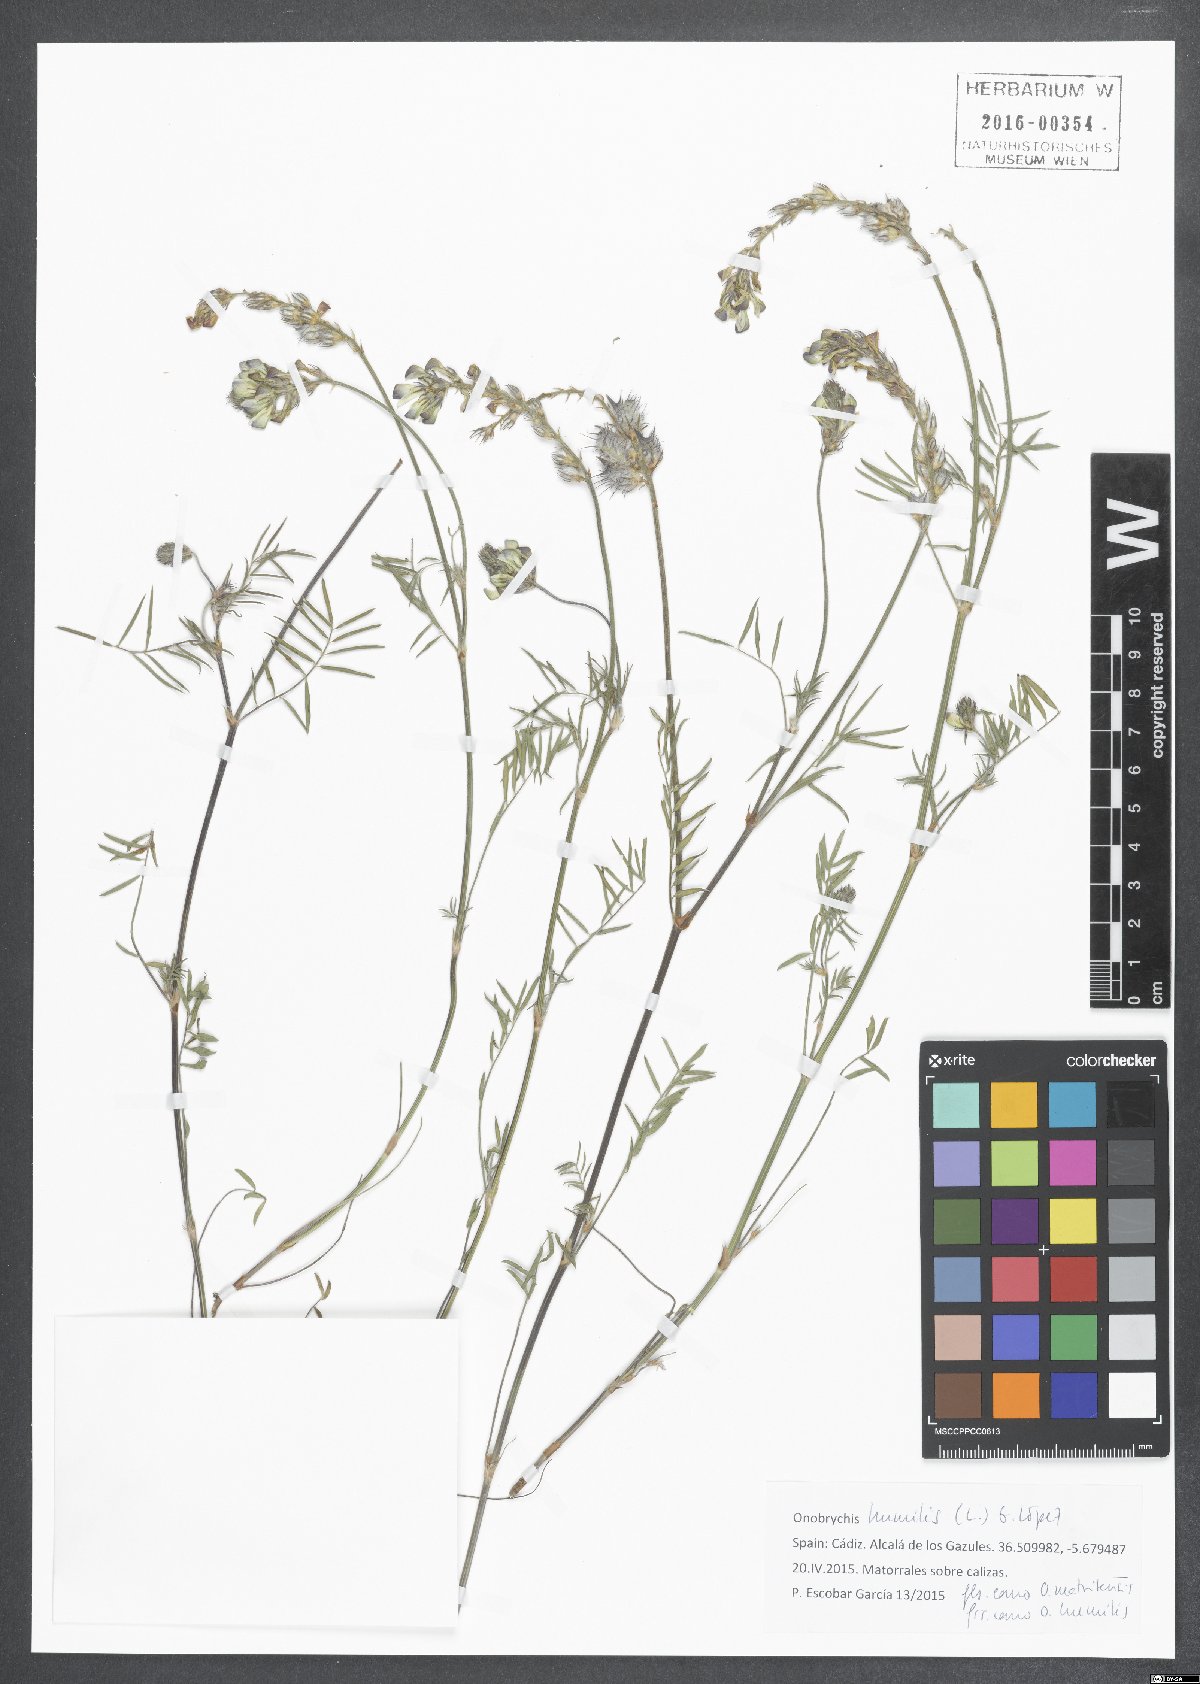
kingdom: Plantae
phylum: Tracheophyta
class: Magnoliopsida
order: Fabales
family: Fabaceae
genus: Onobrychis
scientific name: Onobrychis humilis
